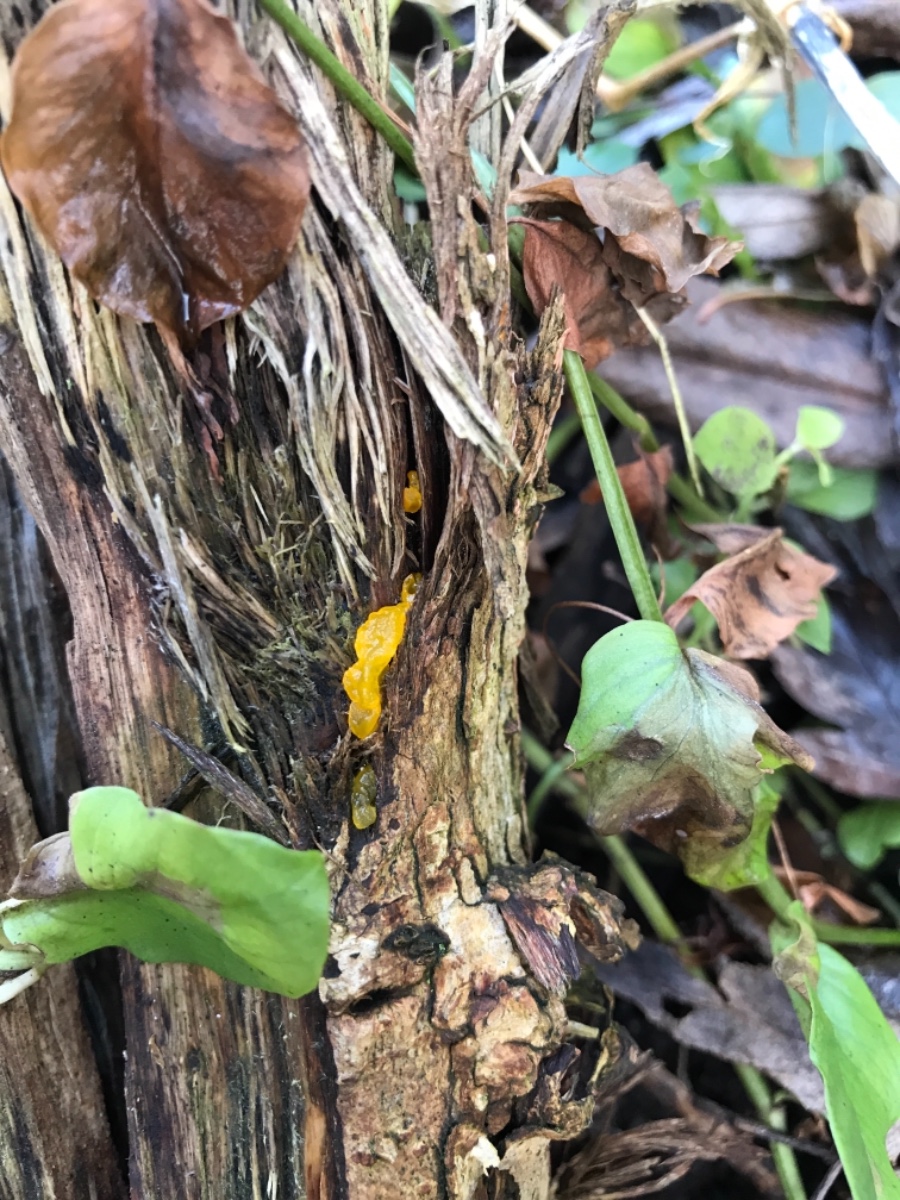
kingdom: Fungi
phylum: Basidiomycota
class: Tremellomycetes
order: Tremellales
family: Tremellaceae
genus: Tremella
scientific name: Tremella mesenterica
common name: gul bævresvamp
